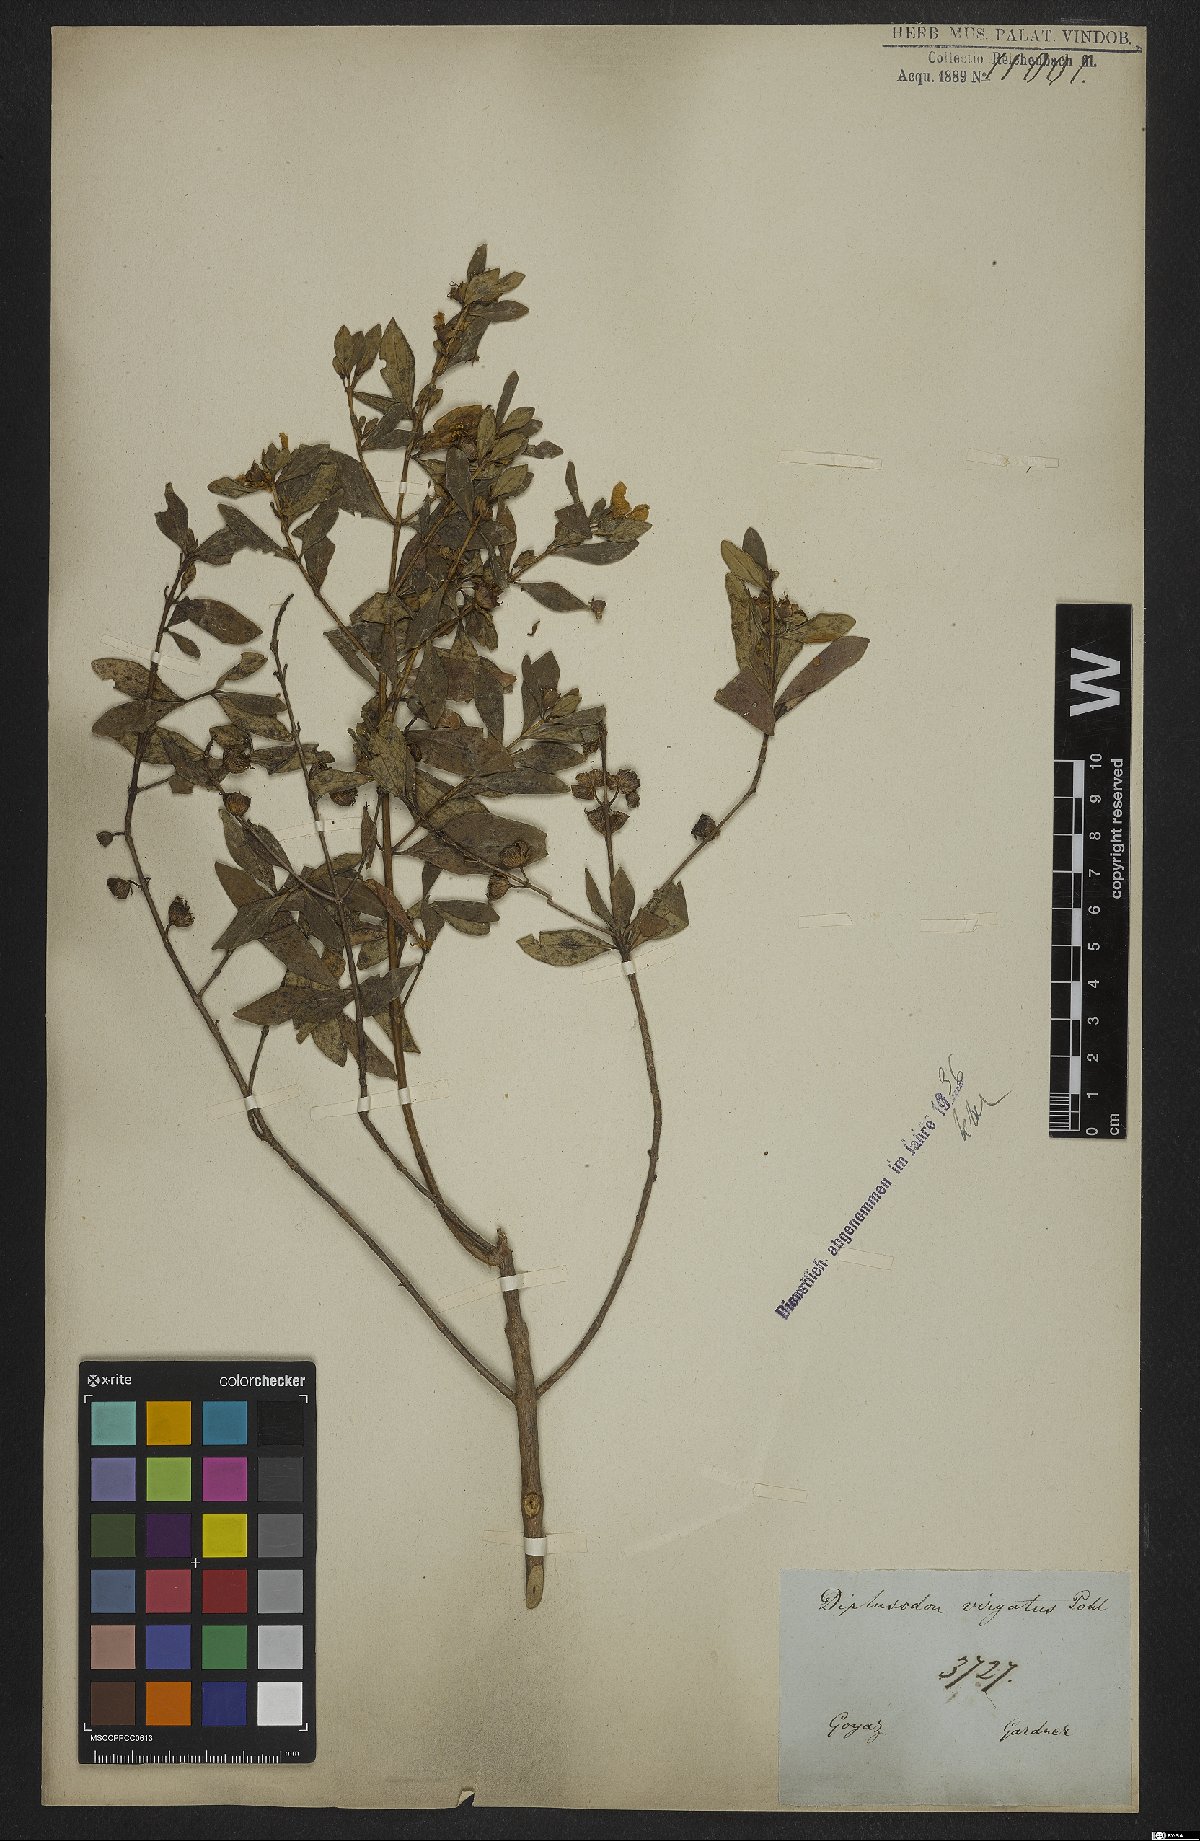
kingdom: Plantae
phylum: Tracheophyta
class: Magnoliopsida
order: Myrtales
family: Lythraceae
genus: Diplusodon
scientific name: Diplusodon virgatus
